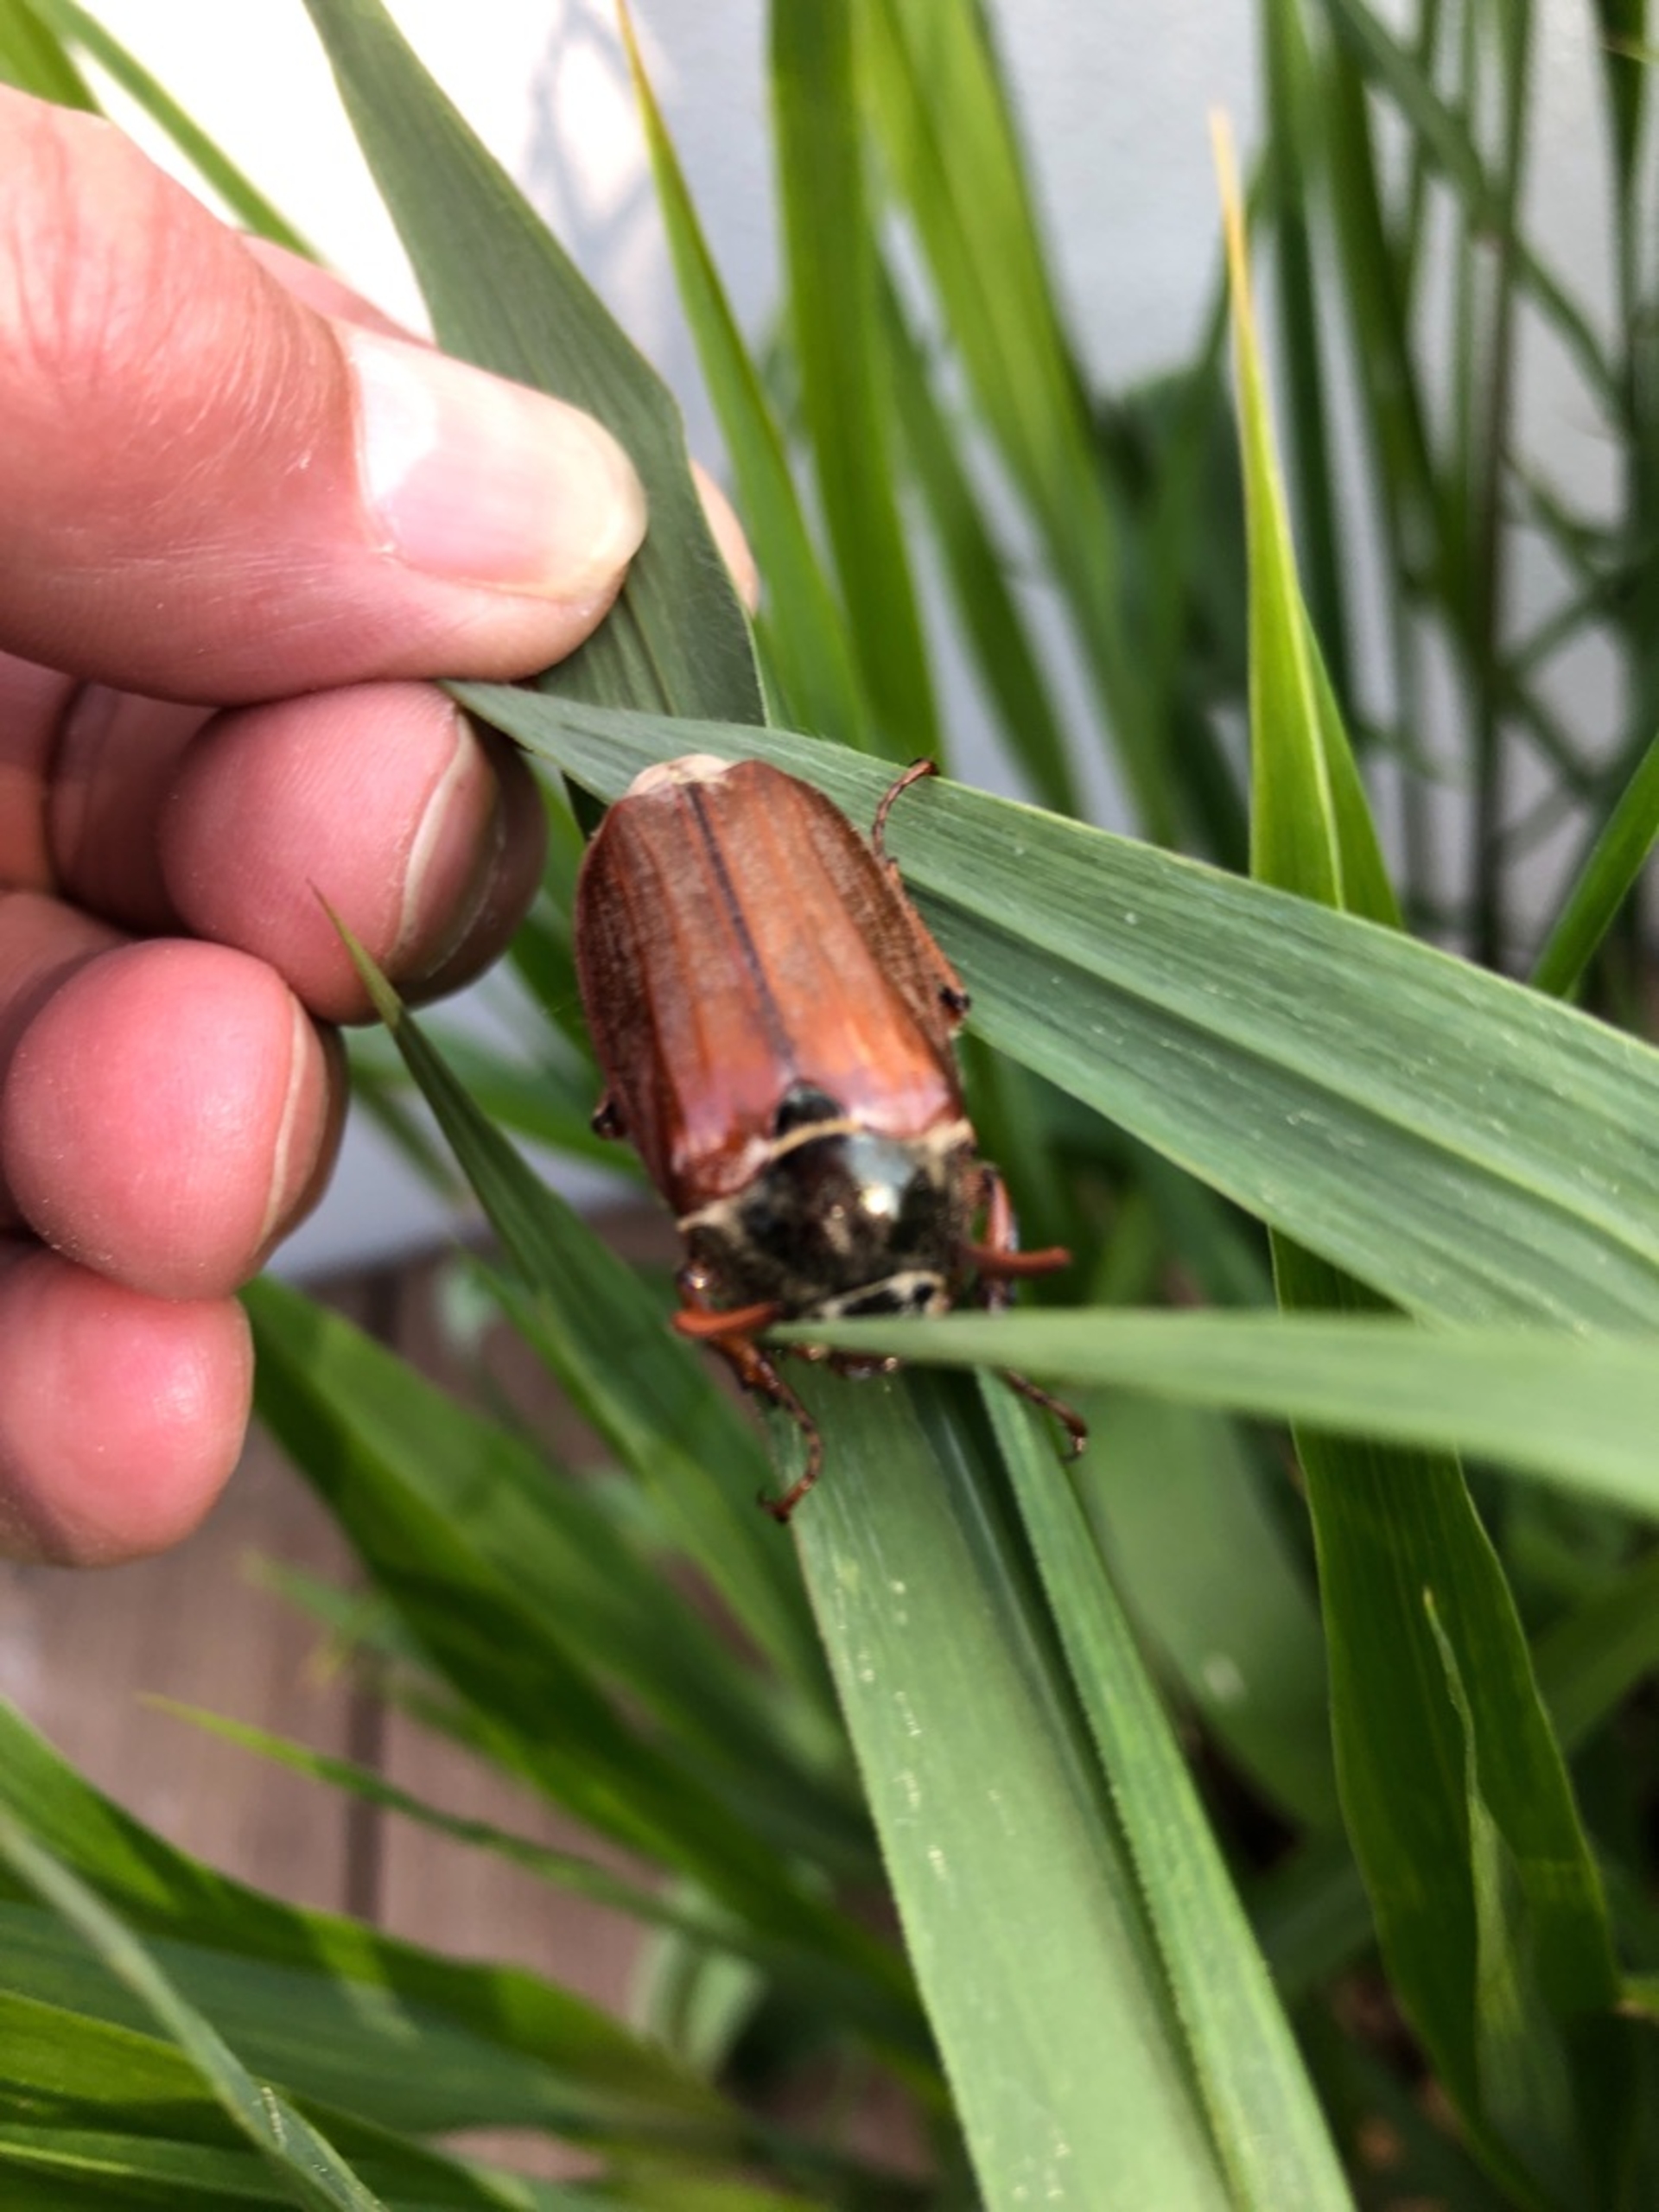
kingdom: Animalia
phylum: Arthropoda
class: Insecta
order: Coleoptera
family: Scarabaeidae
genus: Melolontha
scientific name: Melolontha melolontha
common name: Almindelig oldenborre
